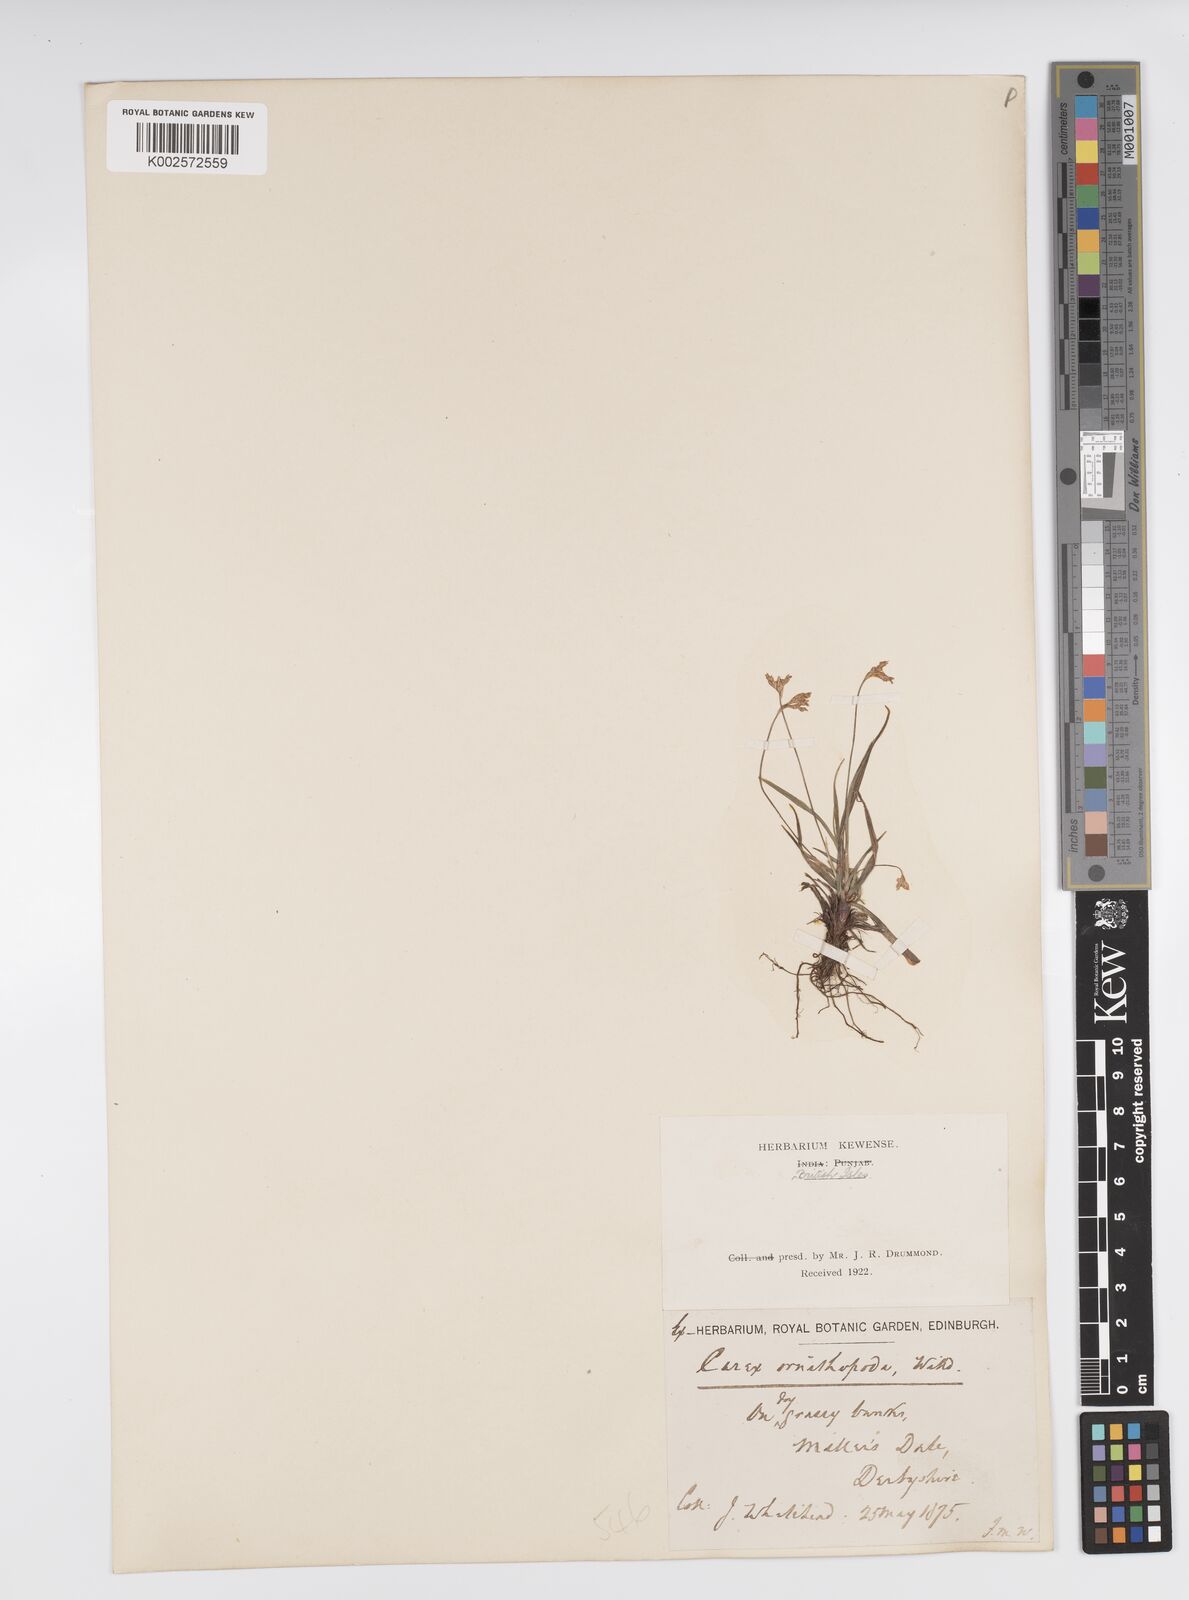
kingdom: Plantae
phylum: Tracheophyta
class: Liliopsida
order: Poales
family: Cyperaceae
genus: Carex
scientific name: Carex ornithopoda
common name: Bird's-foot sedge
